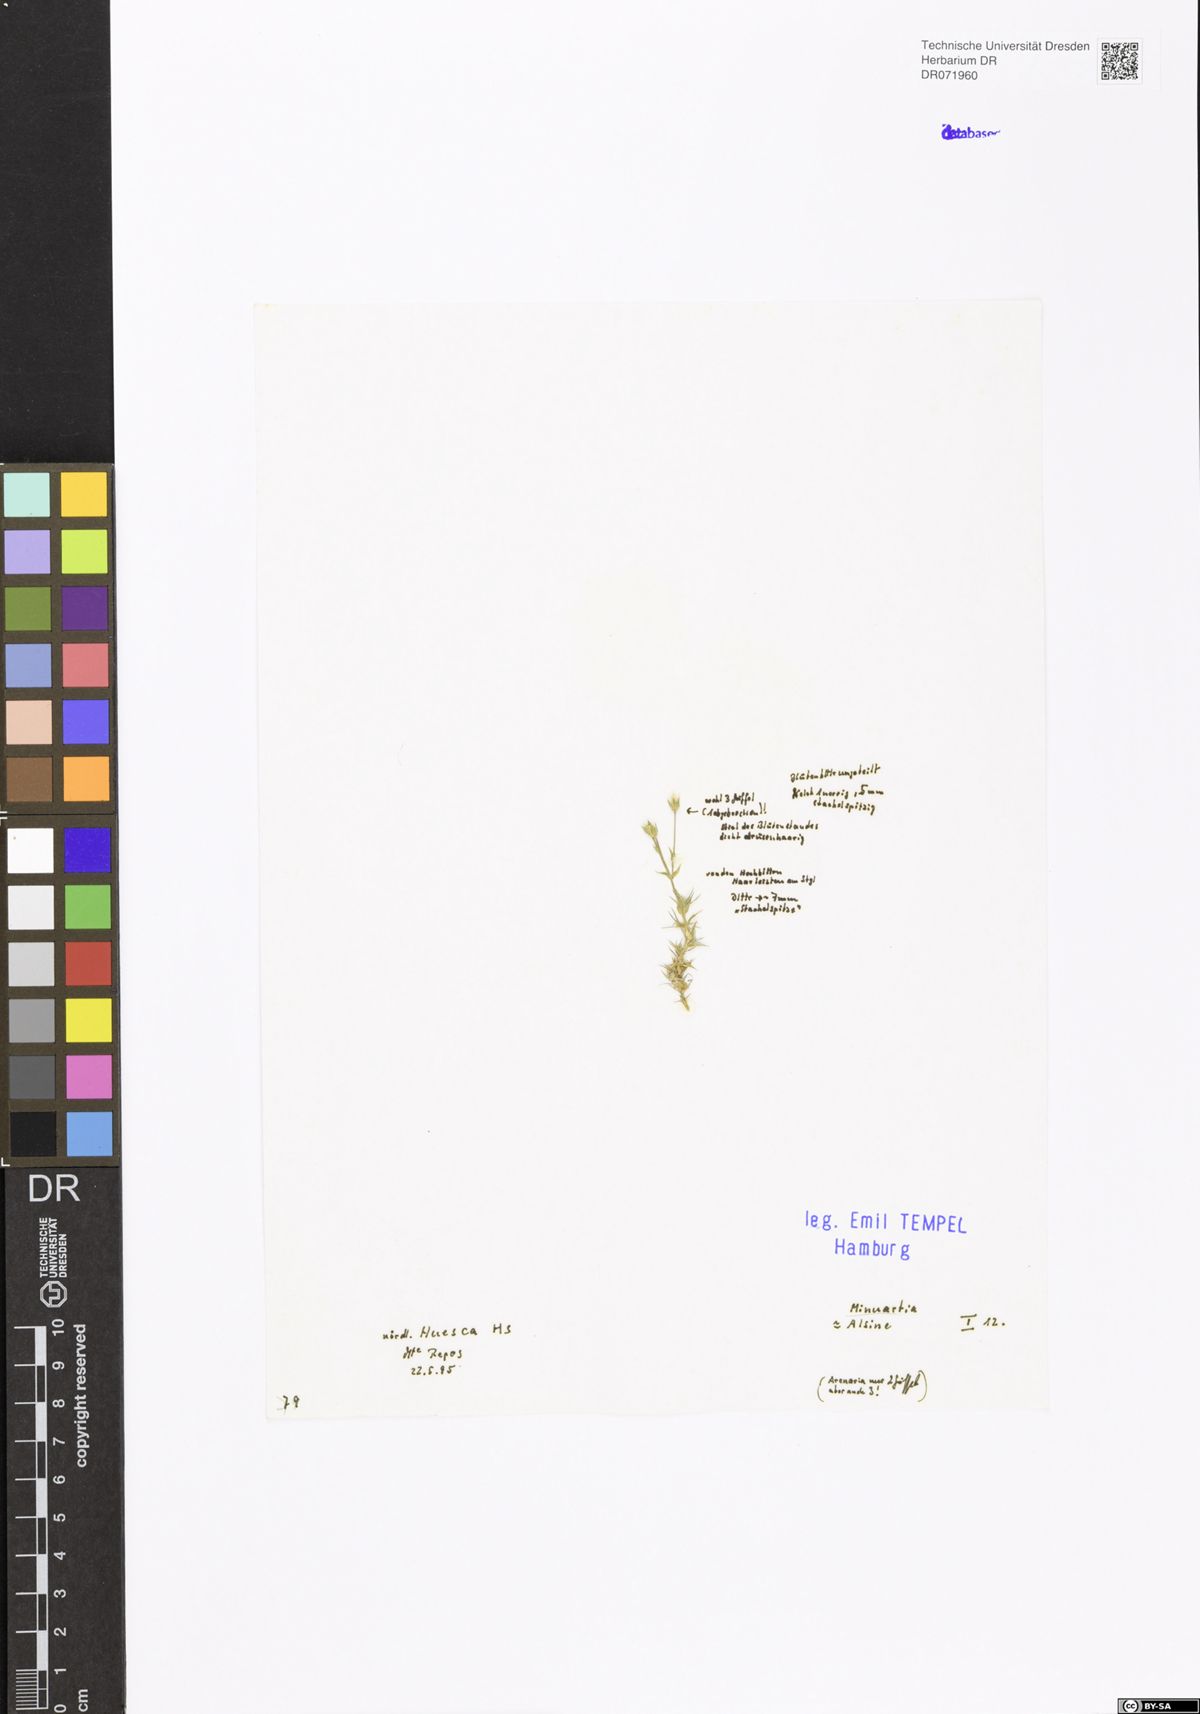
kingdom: Plantae
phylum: Tracheophyta
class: Magnoliopsida
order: Caryophyllales
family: Caryophyllaceae
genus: Minuartia
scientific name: Minuartia
